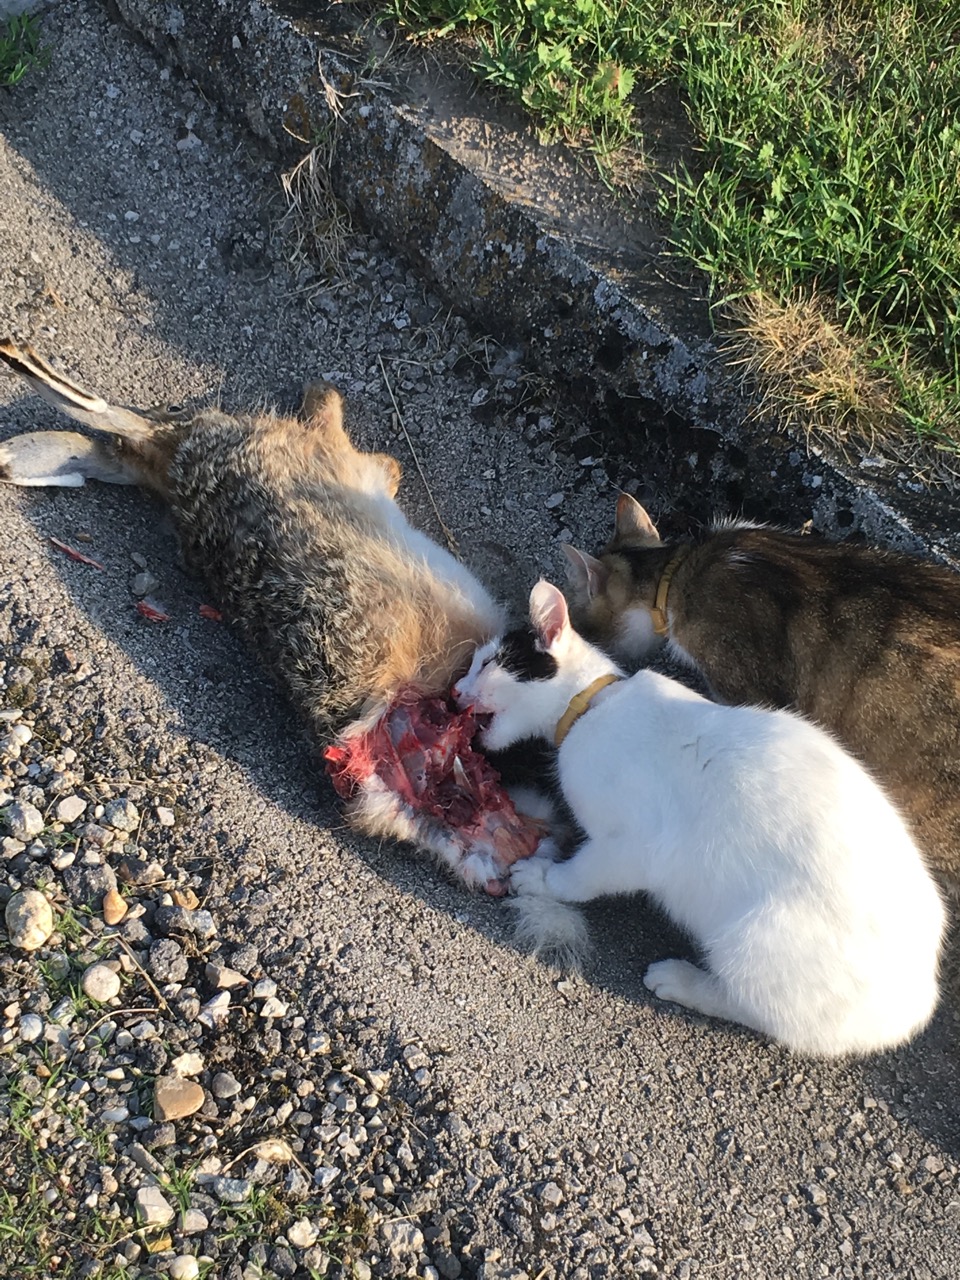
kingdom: Animalia
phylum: Chordata
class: Mammalia
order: Lagomorpha
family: Leporidae
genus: Lepus
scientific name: Lepus europaeus
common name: European hare
